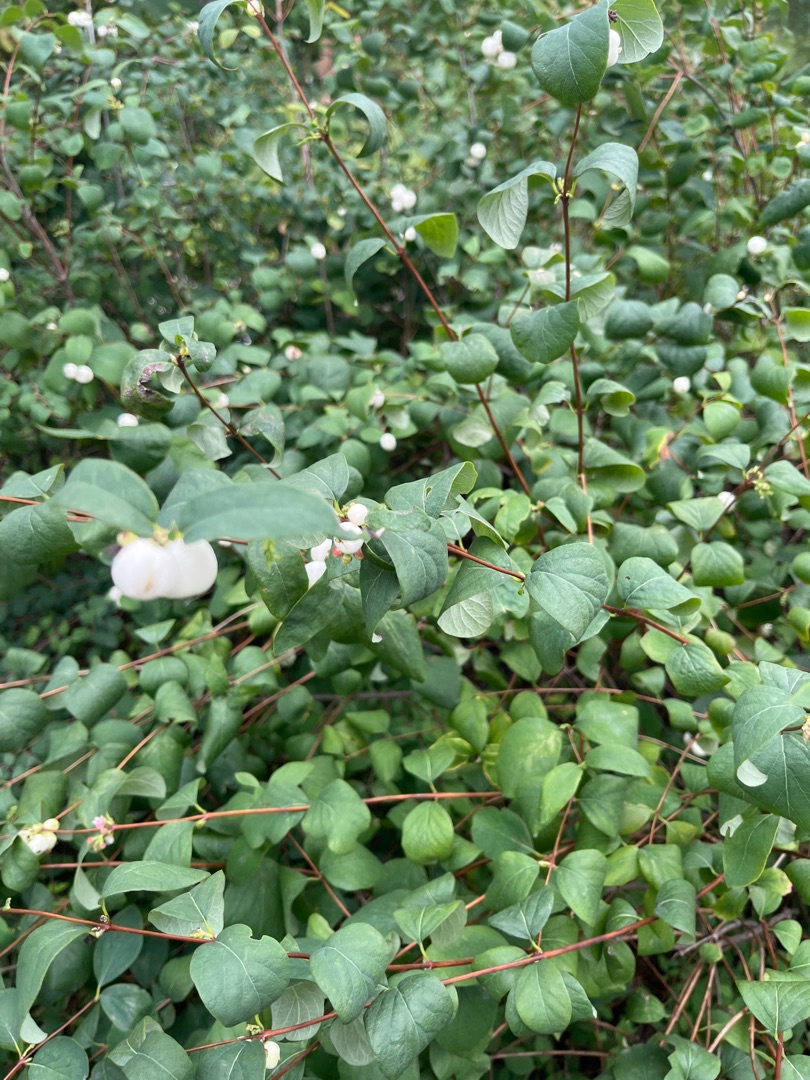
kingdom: Plantae
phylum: Tracheophyta
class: Magnoliopsida
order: Dipsacales
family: Caprifoliaceae
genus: Symphoricarpos
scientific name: Symphoricarpos albus
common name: Almindelig snebær
